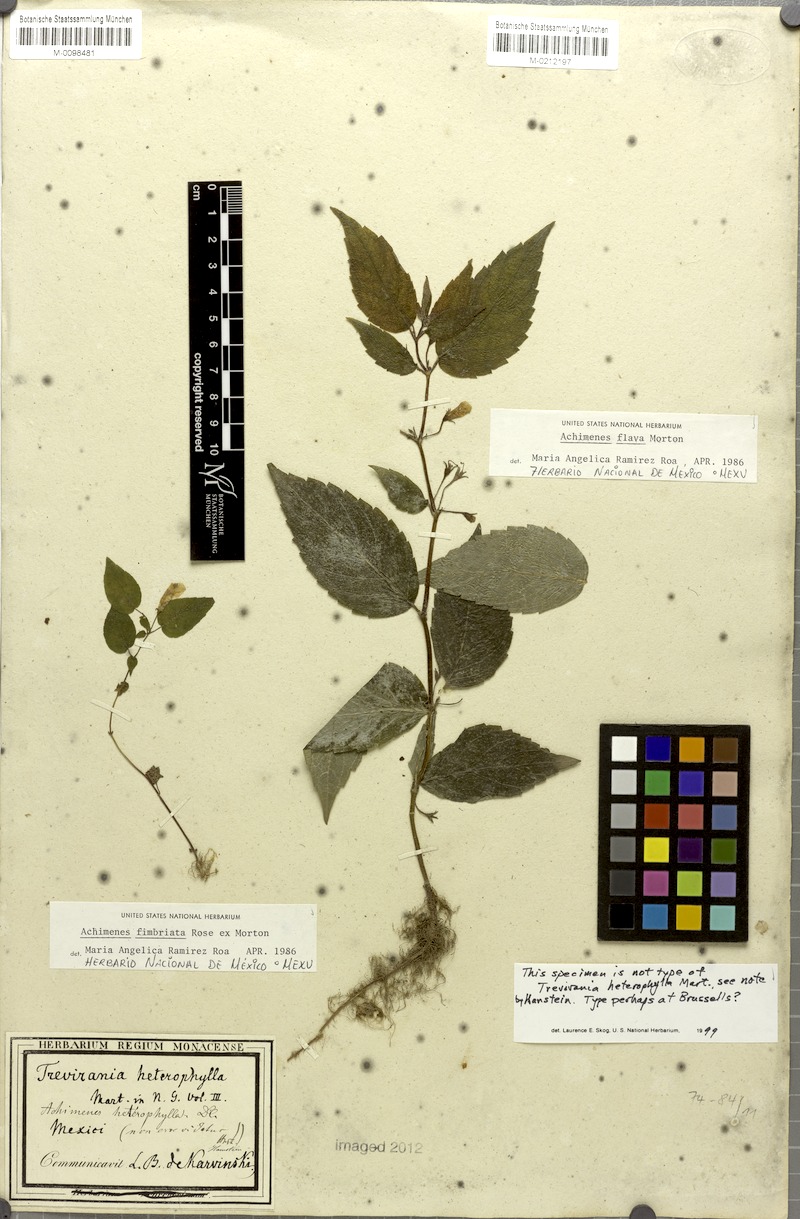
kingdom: Plantae
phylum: Tracheophyta
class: Magnoliopsida
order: Lamiales
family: Gesneriaceae
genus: Achimenes
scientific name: Achimenes flava
